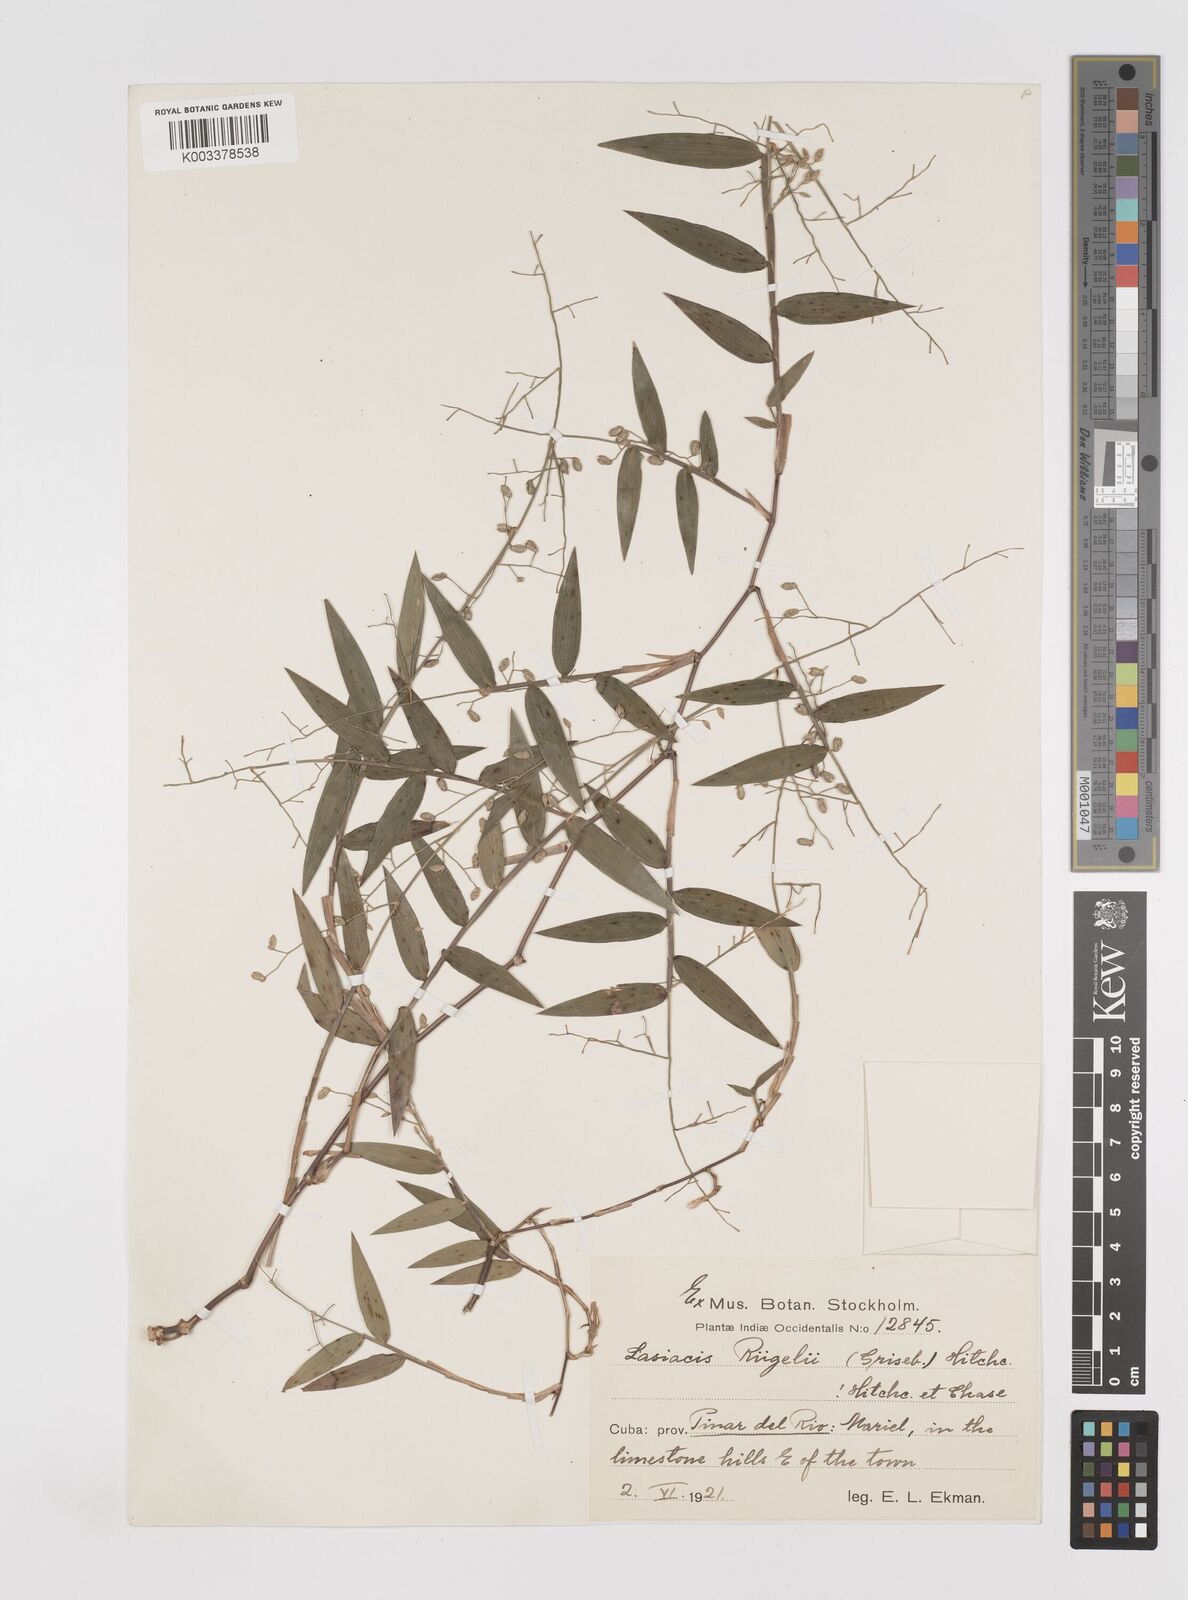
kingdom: Plantae
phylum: Tracheophyta
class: Liliopsida
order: Poales
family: Poaceae
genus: Lasiacis
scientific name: Lasiacis rugelii
